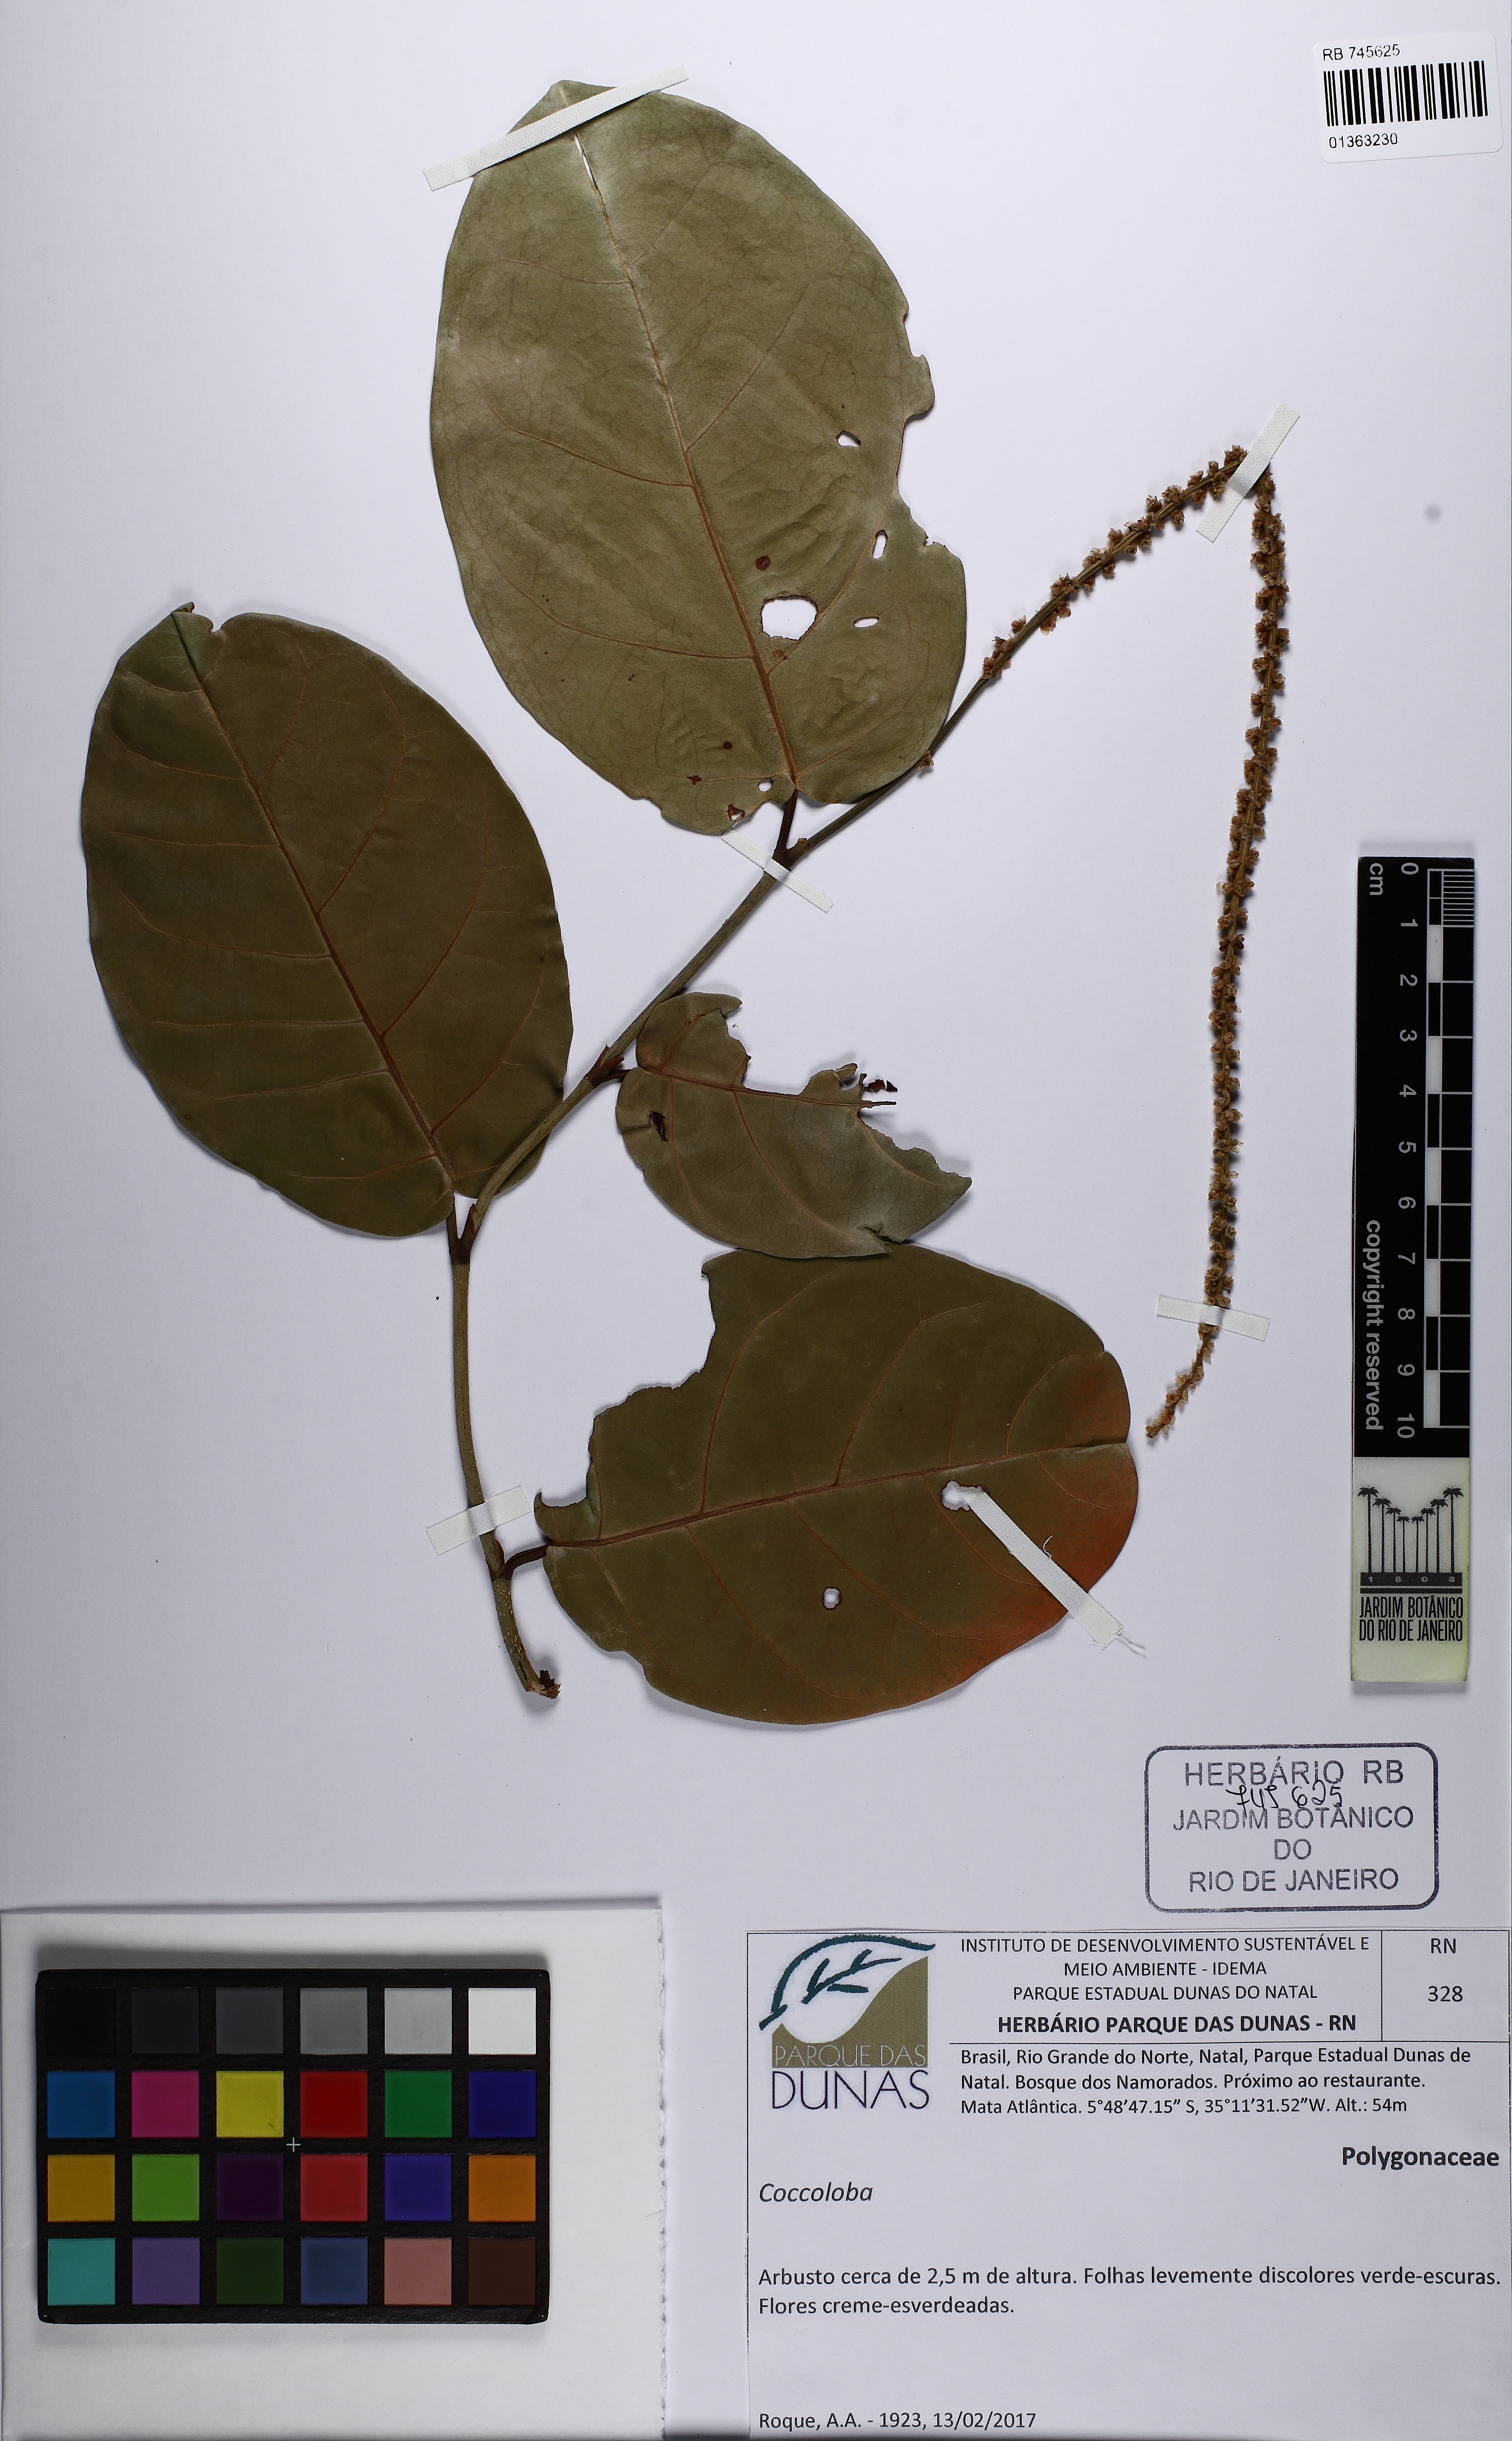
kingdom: Plantae
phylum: Tracheophyta
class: Magnoliopsida
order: Caryophyllales
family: Polygonaceae
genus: Coccoloba
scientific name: Coccoloba
